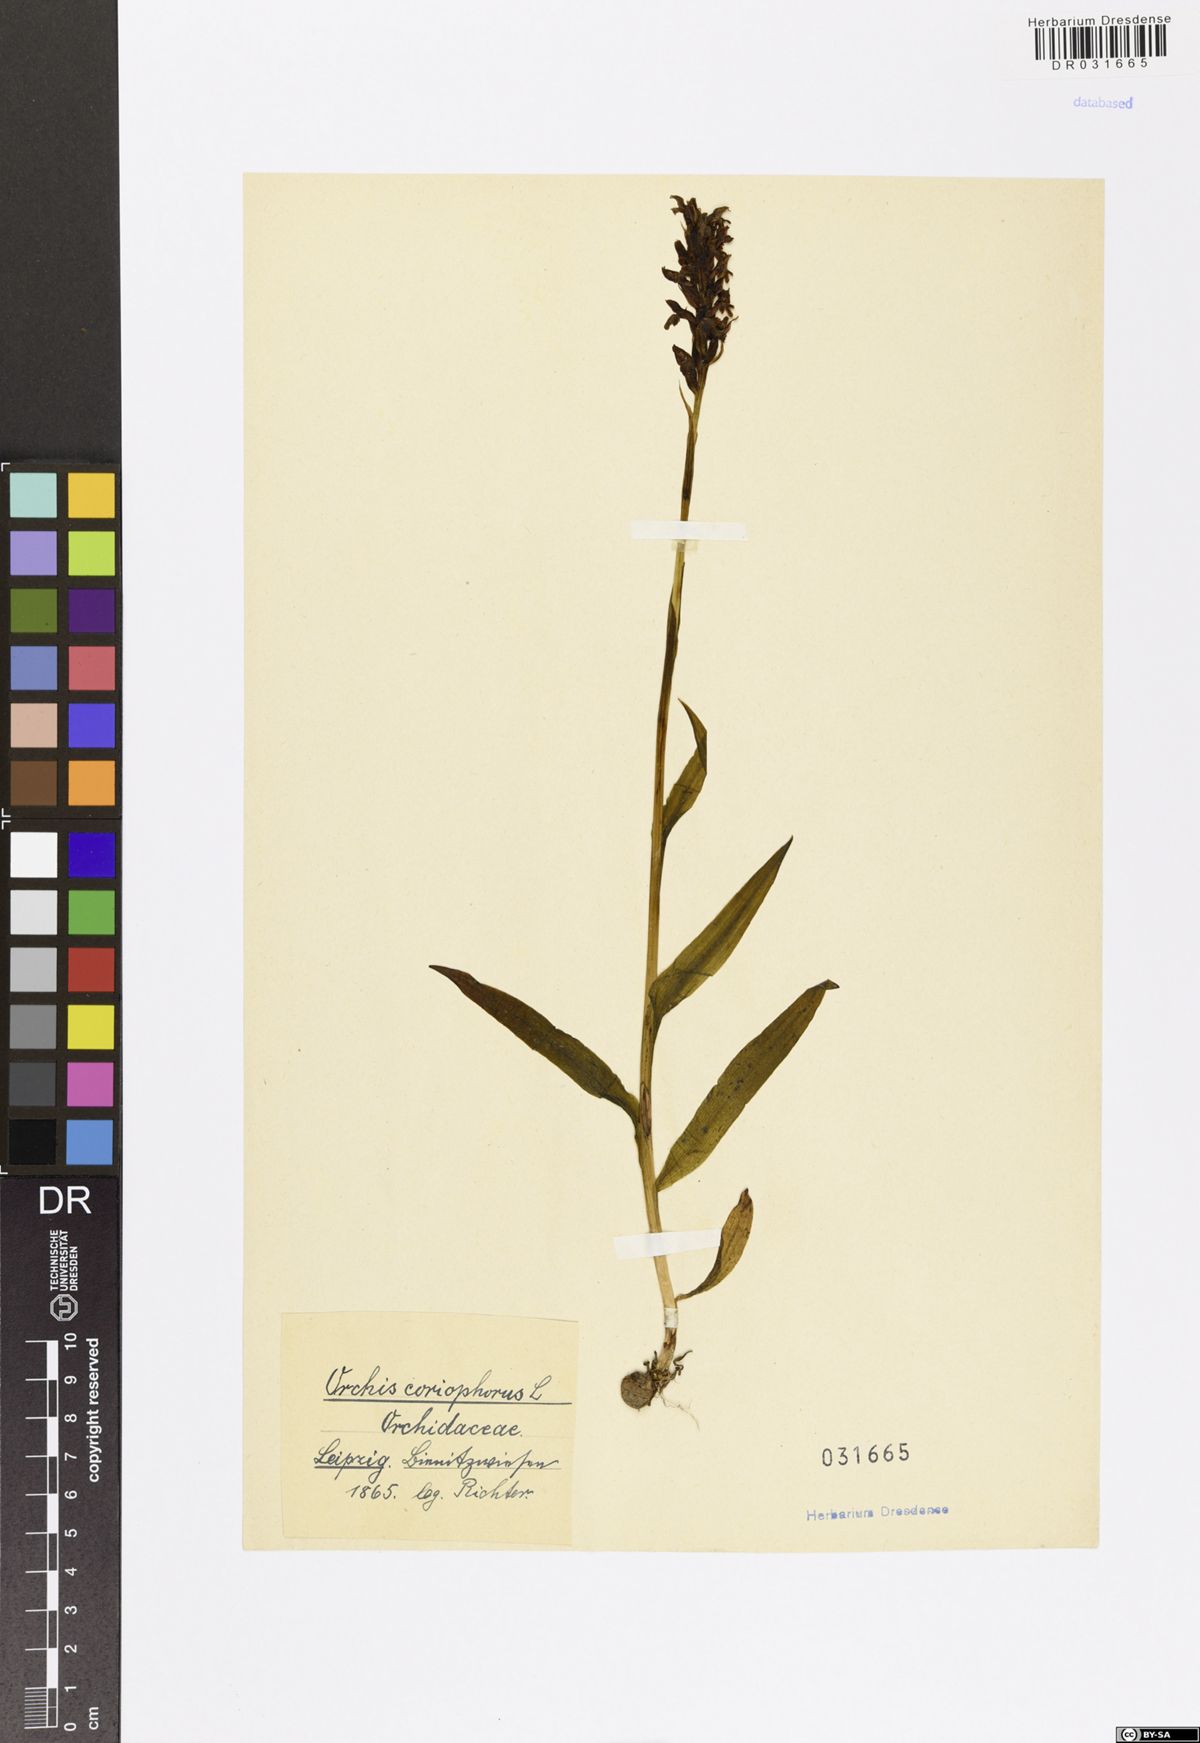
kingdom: Plantae
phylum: Tracheophyta
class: Liliopsida
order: Asparagales
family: Orchidaceae
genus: Anacamptis
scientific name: Anacamptis coriophora
